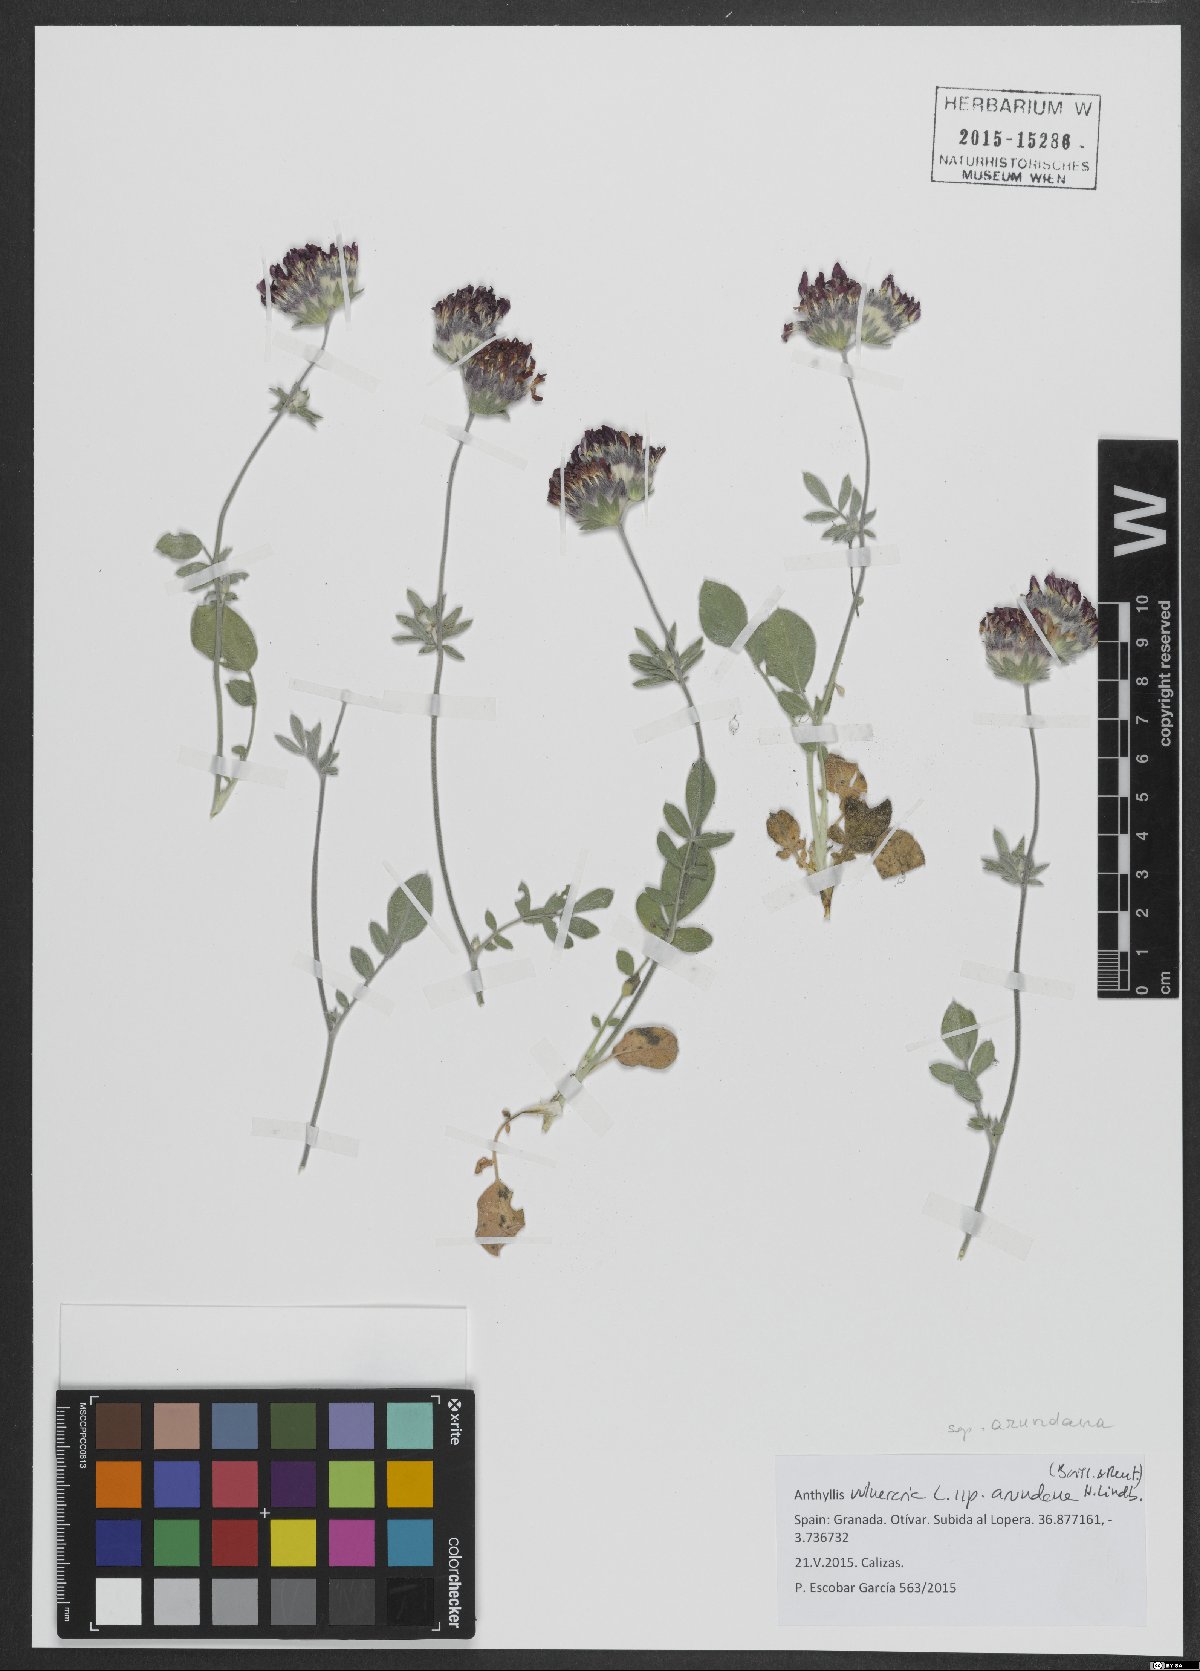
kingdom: Plantae
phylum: Tracheophyta
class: Magnoliopsida
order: Fabales
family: Fabaceae
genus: Anthyllis
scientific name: Anthyllis vulneraria
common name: Kidney vetch
